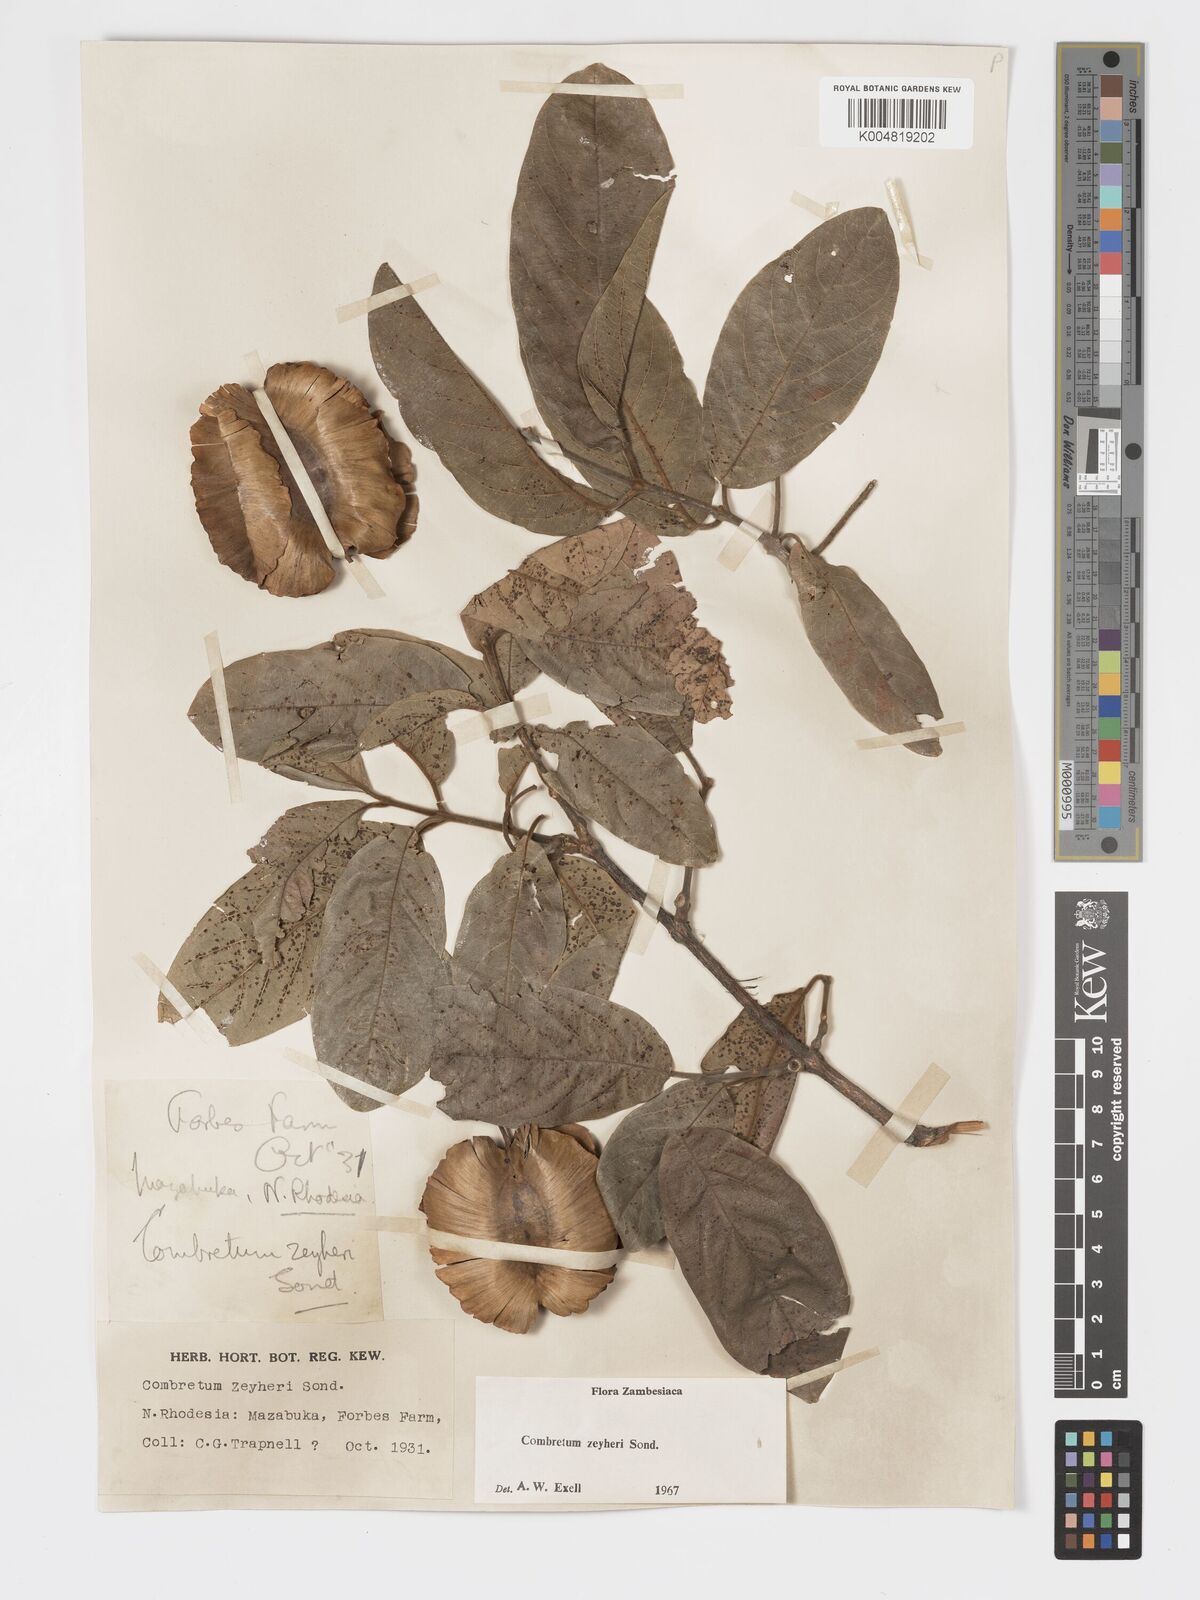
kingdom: Plantae
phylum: Tracheophyta
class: Magnoliopsida
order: Myrtales
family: Combretaceae
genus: Combretum
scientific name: Combretum zeyheri
